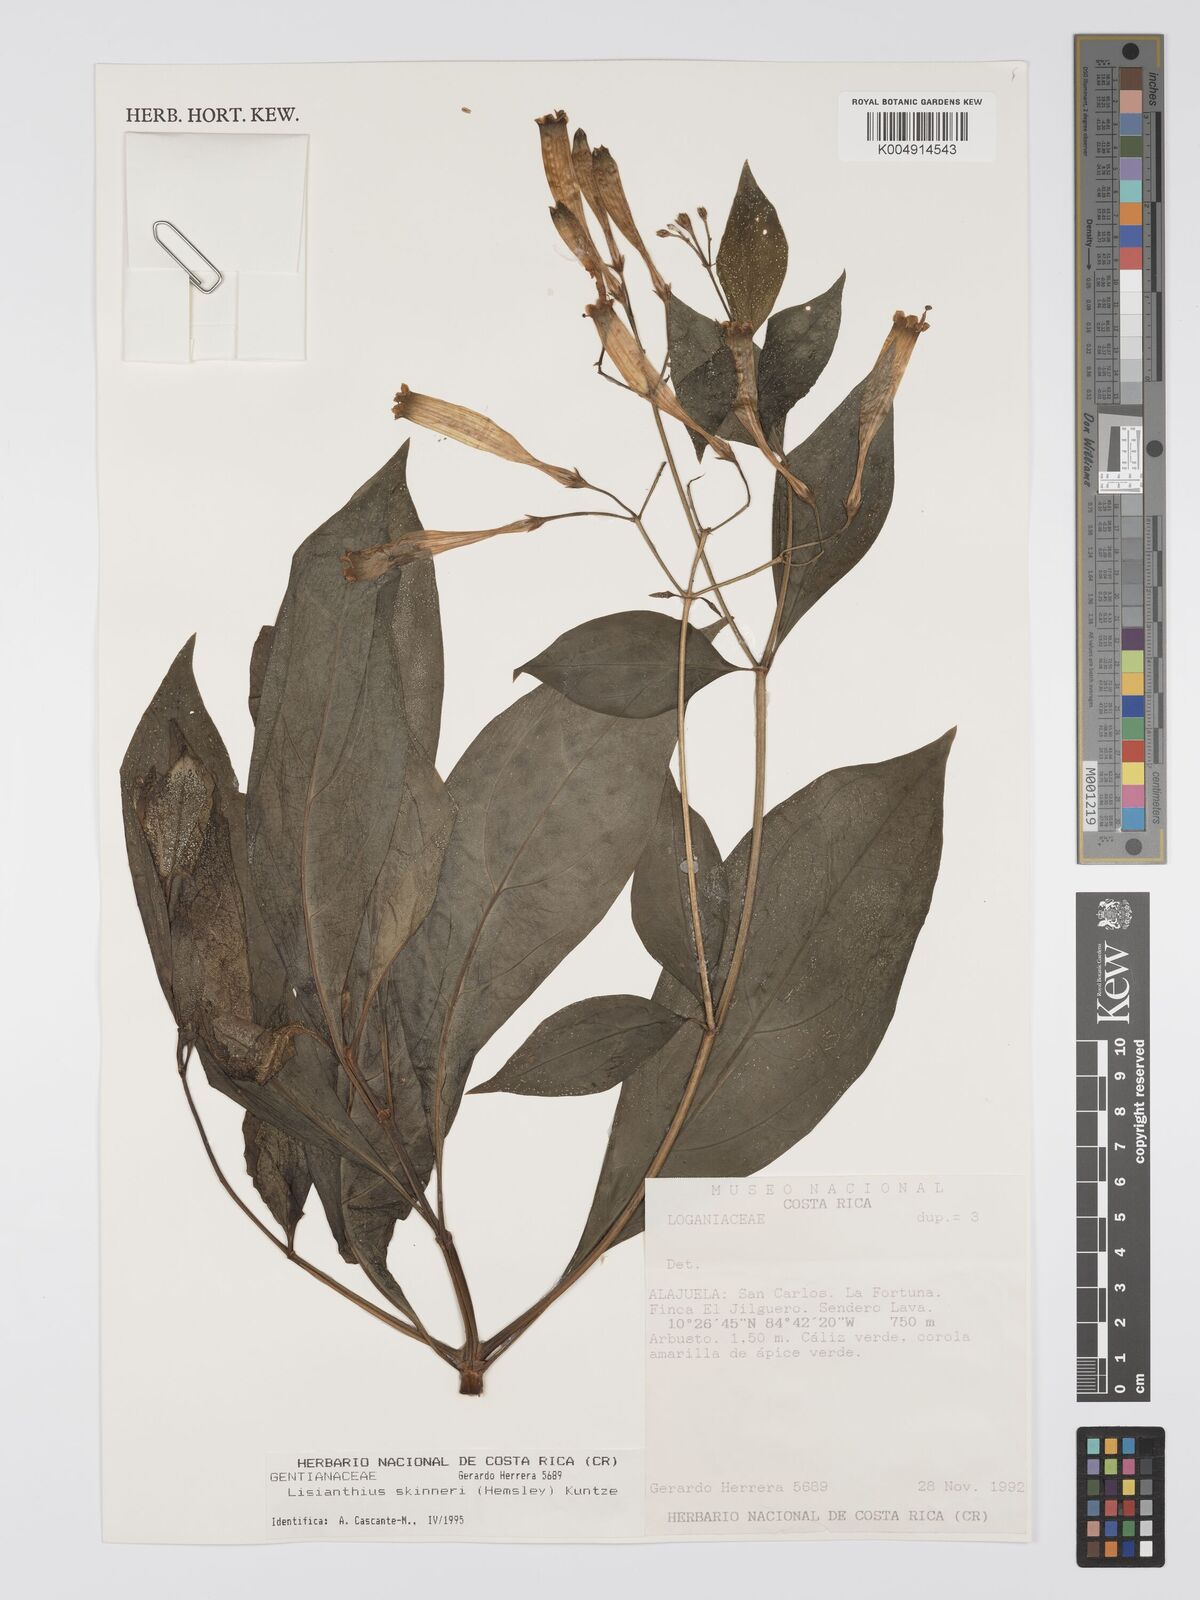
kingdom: Plantae
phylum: Tracheophyta
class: Magnoliopsida
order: Gentianales
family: Gentianaceae
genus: Lisianthus
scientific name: Lisianthus skinneri
